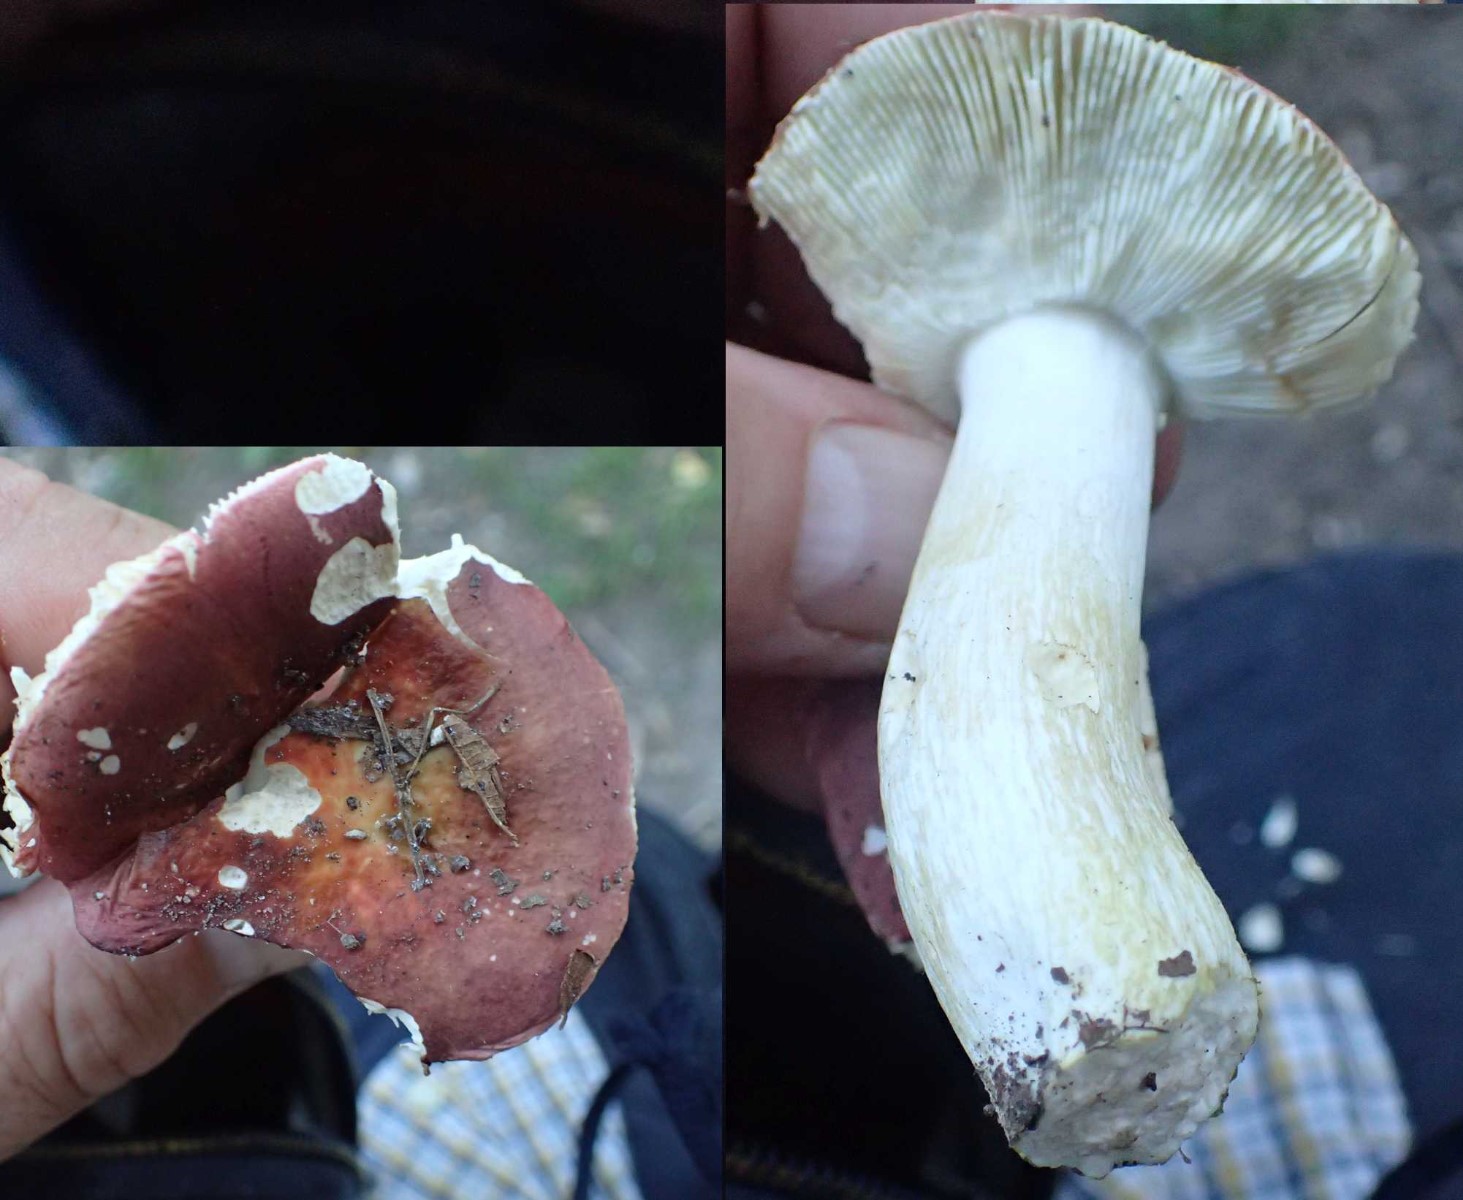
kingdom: Fungi
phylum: Basidiomycota
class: Agaricomycetes
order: Russulales
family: Russulaceae
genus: Russula
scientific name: Russula velenovskyi
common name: orangerød skørhat
